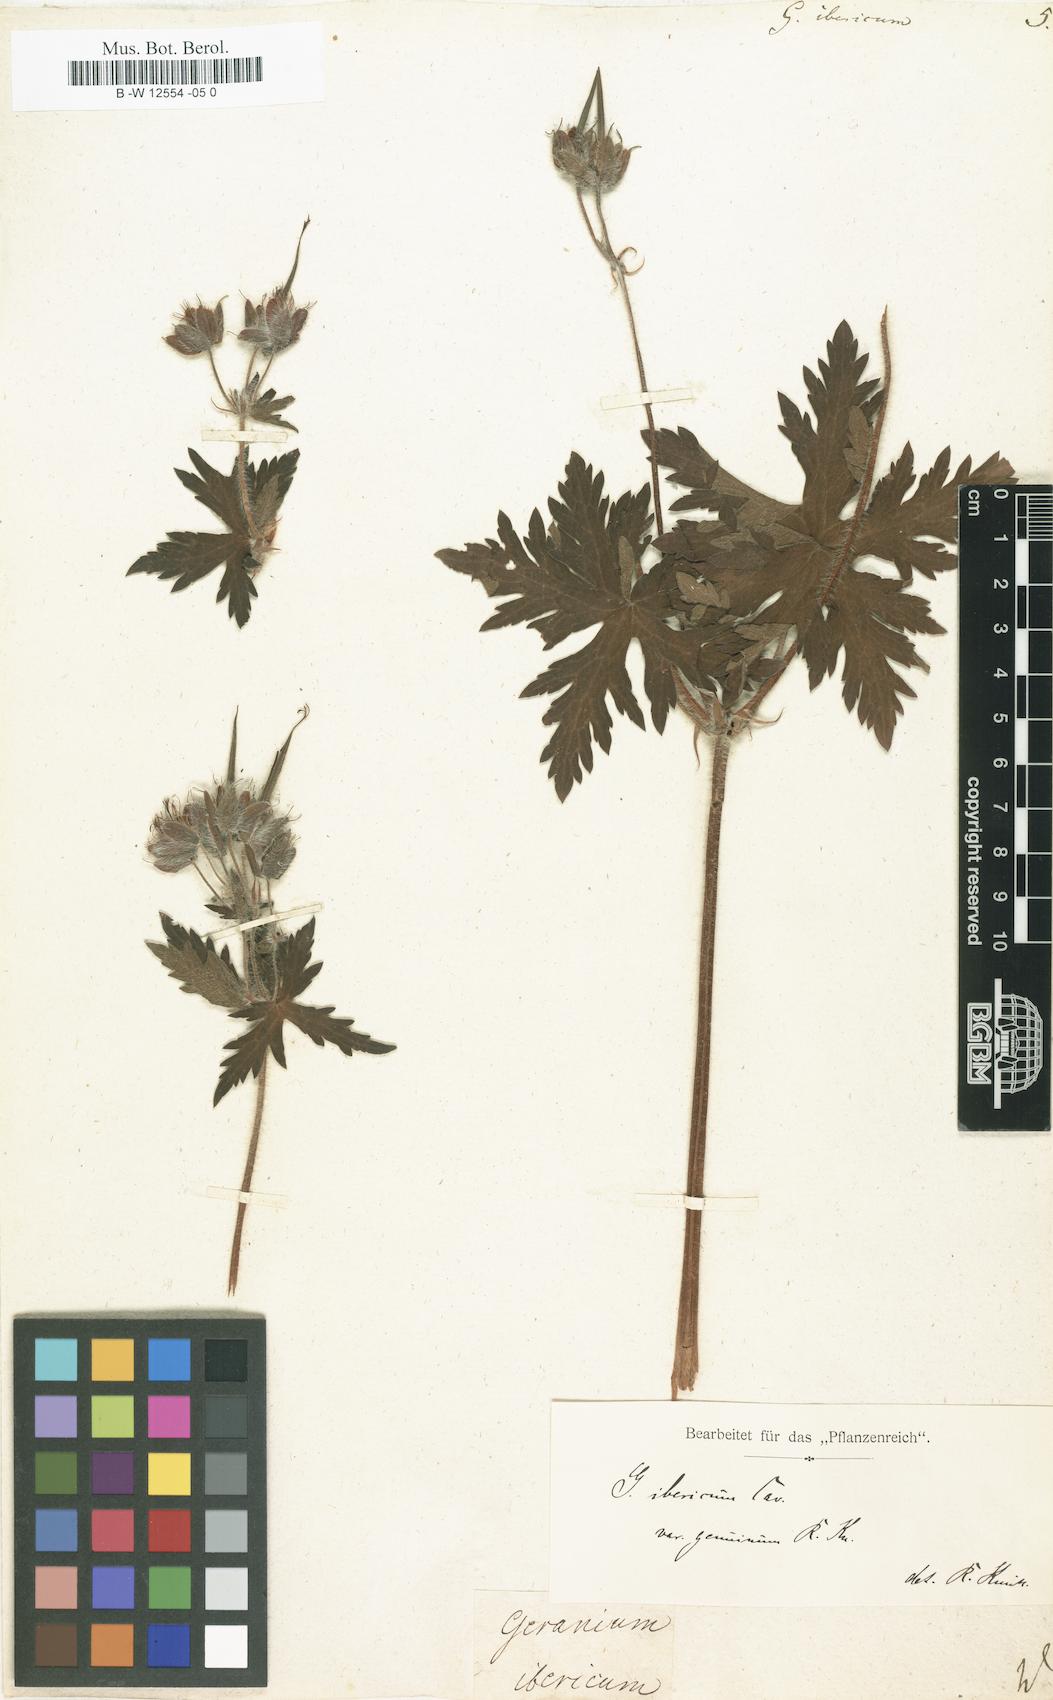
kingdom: Plantae
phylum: Tracheophyta
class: Magnoliopsida
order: Geraniales
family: Geraniaceae
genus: Geranium
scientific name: Geranium ibericum
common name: Caucasian crane's-bill
